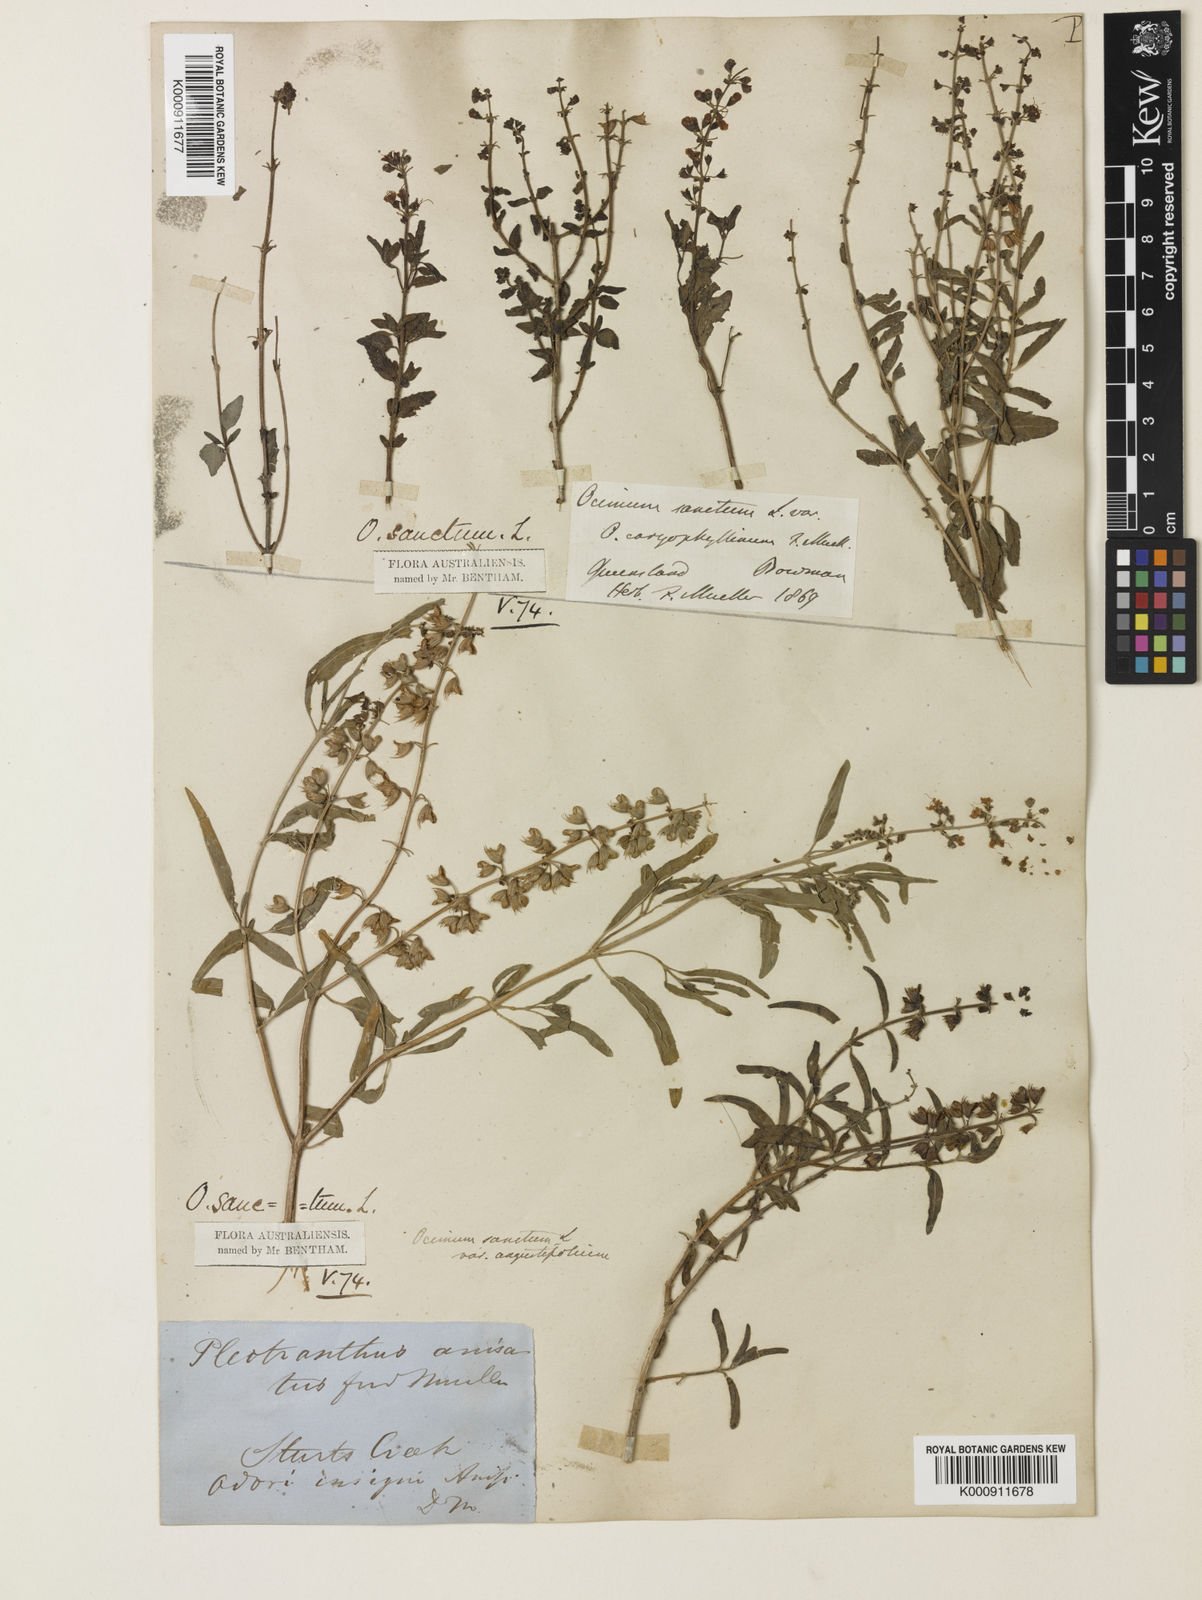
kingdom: Plantae
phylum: Tracheophyta
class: Magnoliopsida
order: Lamiales
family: Lamiaceae
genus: Ocimum
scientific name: Ocimum
